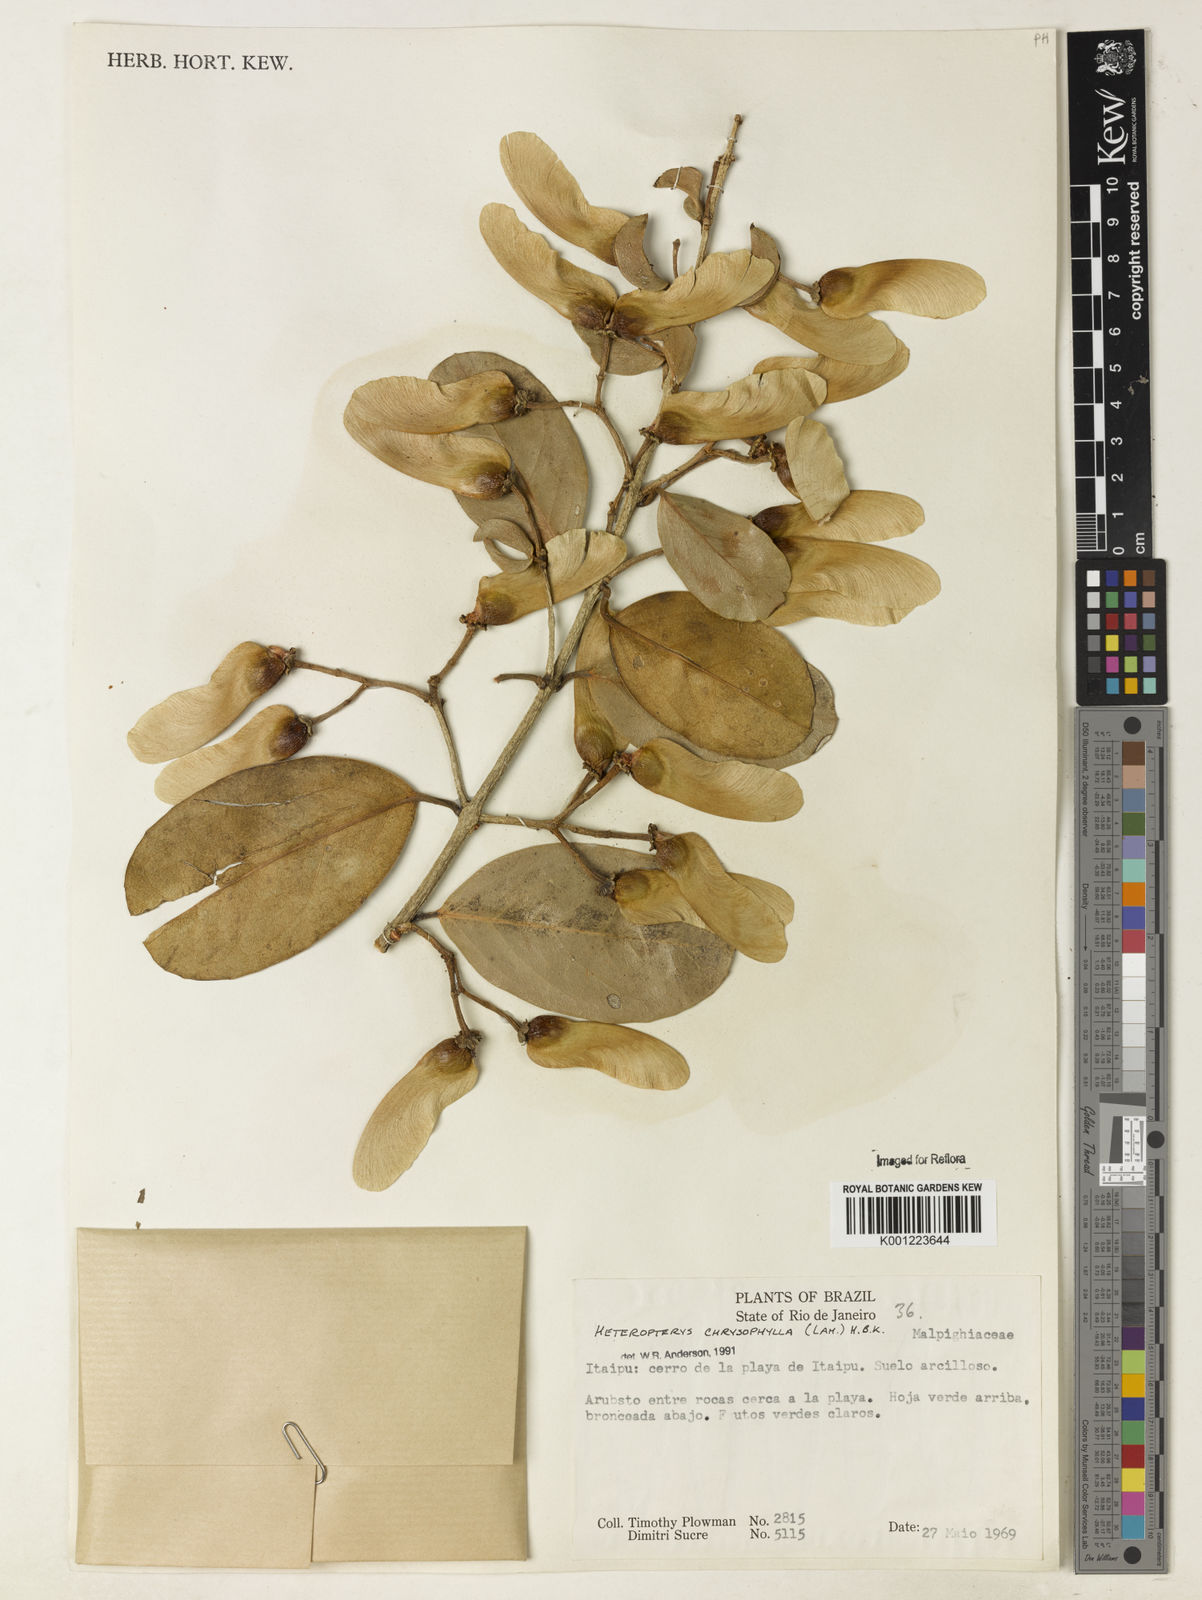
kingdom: Plantae
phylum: Tracheophyta
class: Magnoliopsida
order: Malpighiales
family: Malpighiaceae
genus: Heteropterys
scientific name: Heteropterys chrysophylla
